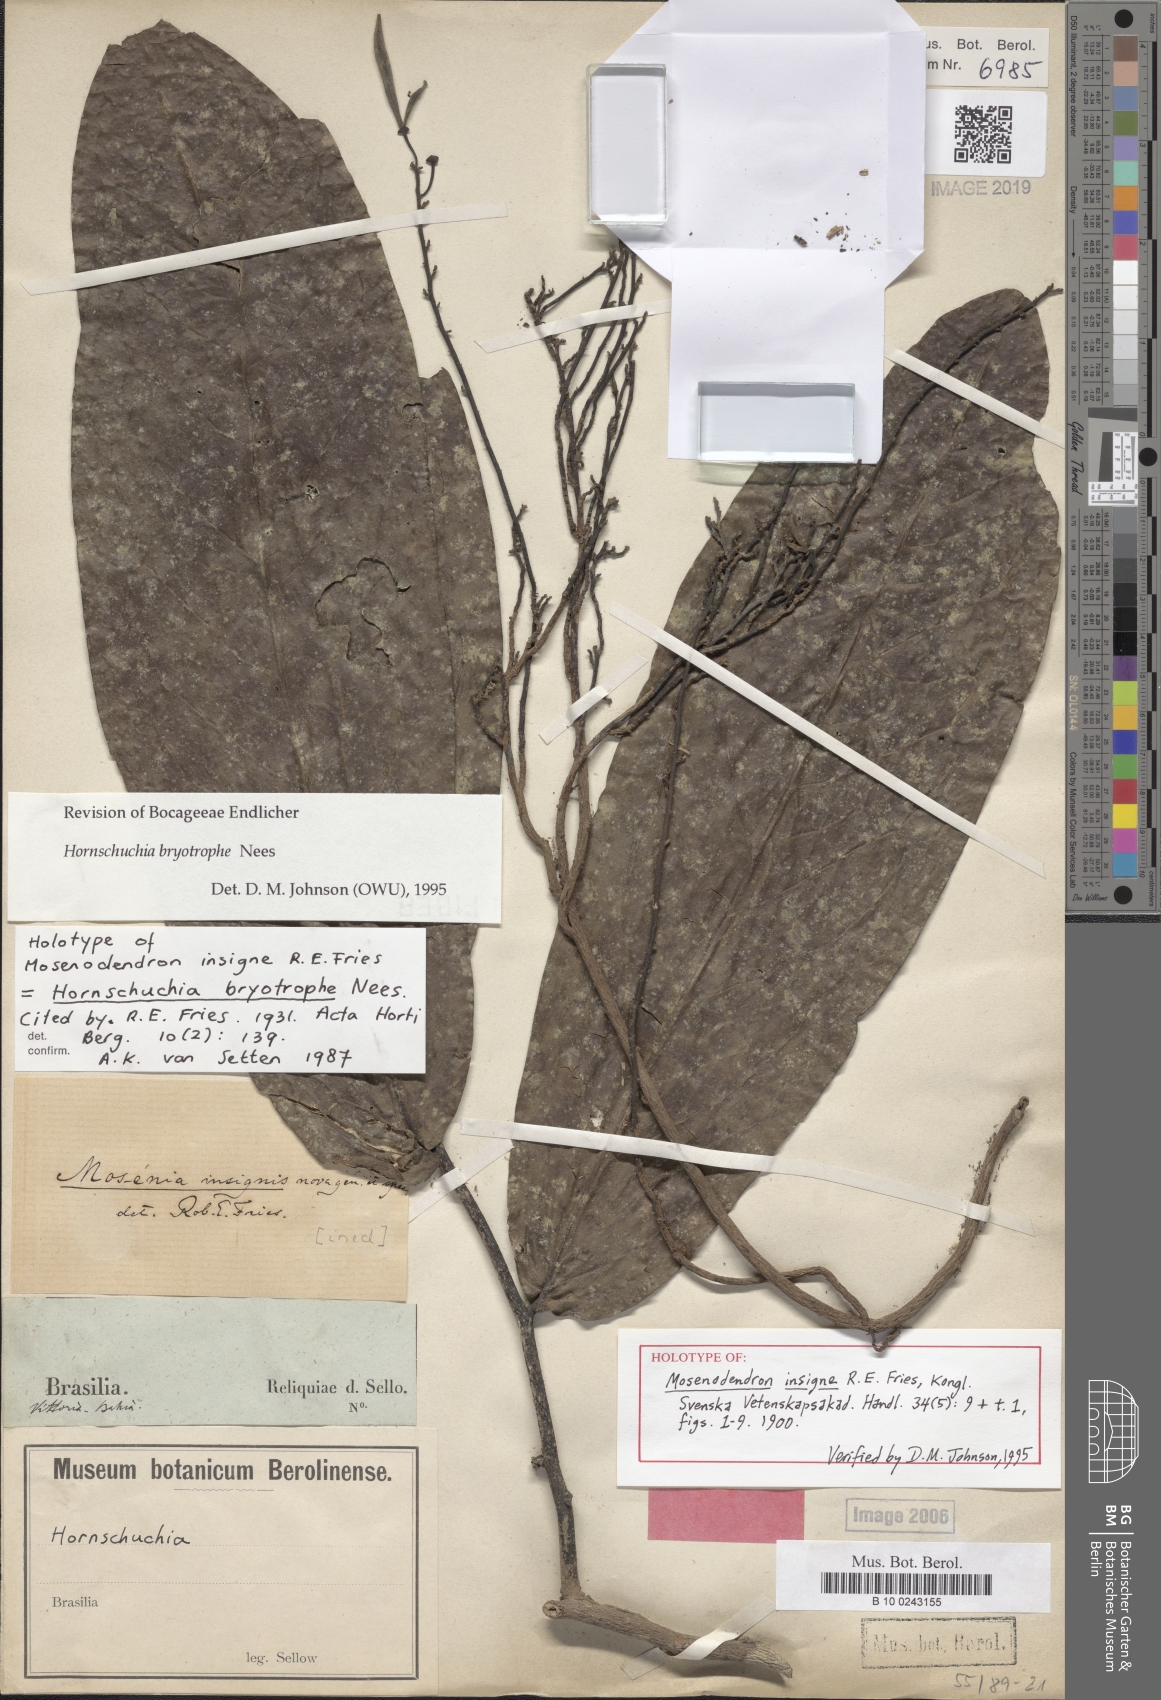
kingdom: Plantae
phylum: Tracheophyta
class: Magnoliopsida
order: Magnoliales
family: Annonaceae
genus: Hornschuchia
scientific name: Hornschuchia bryotrophe
